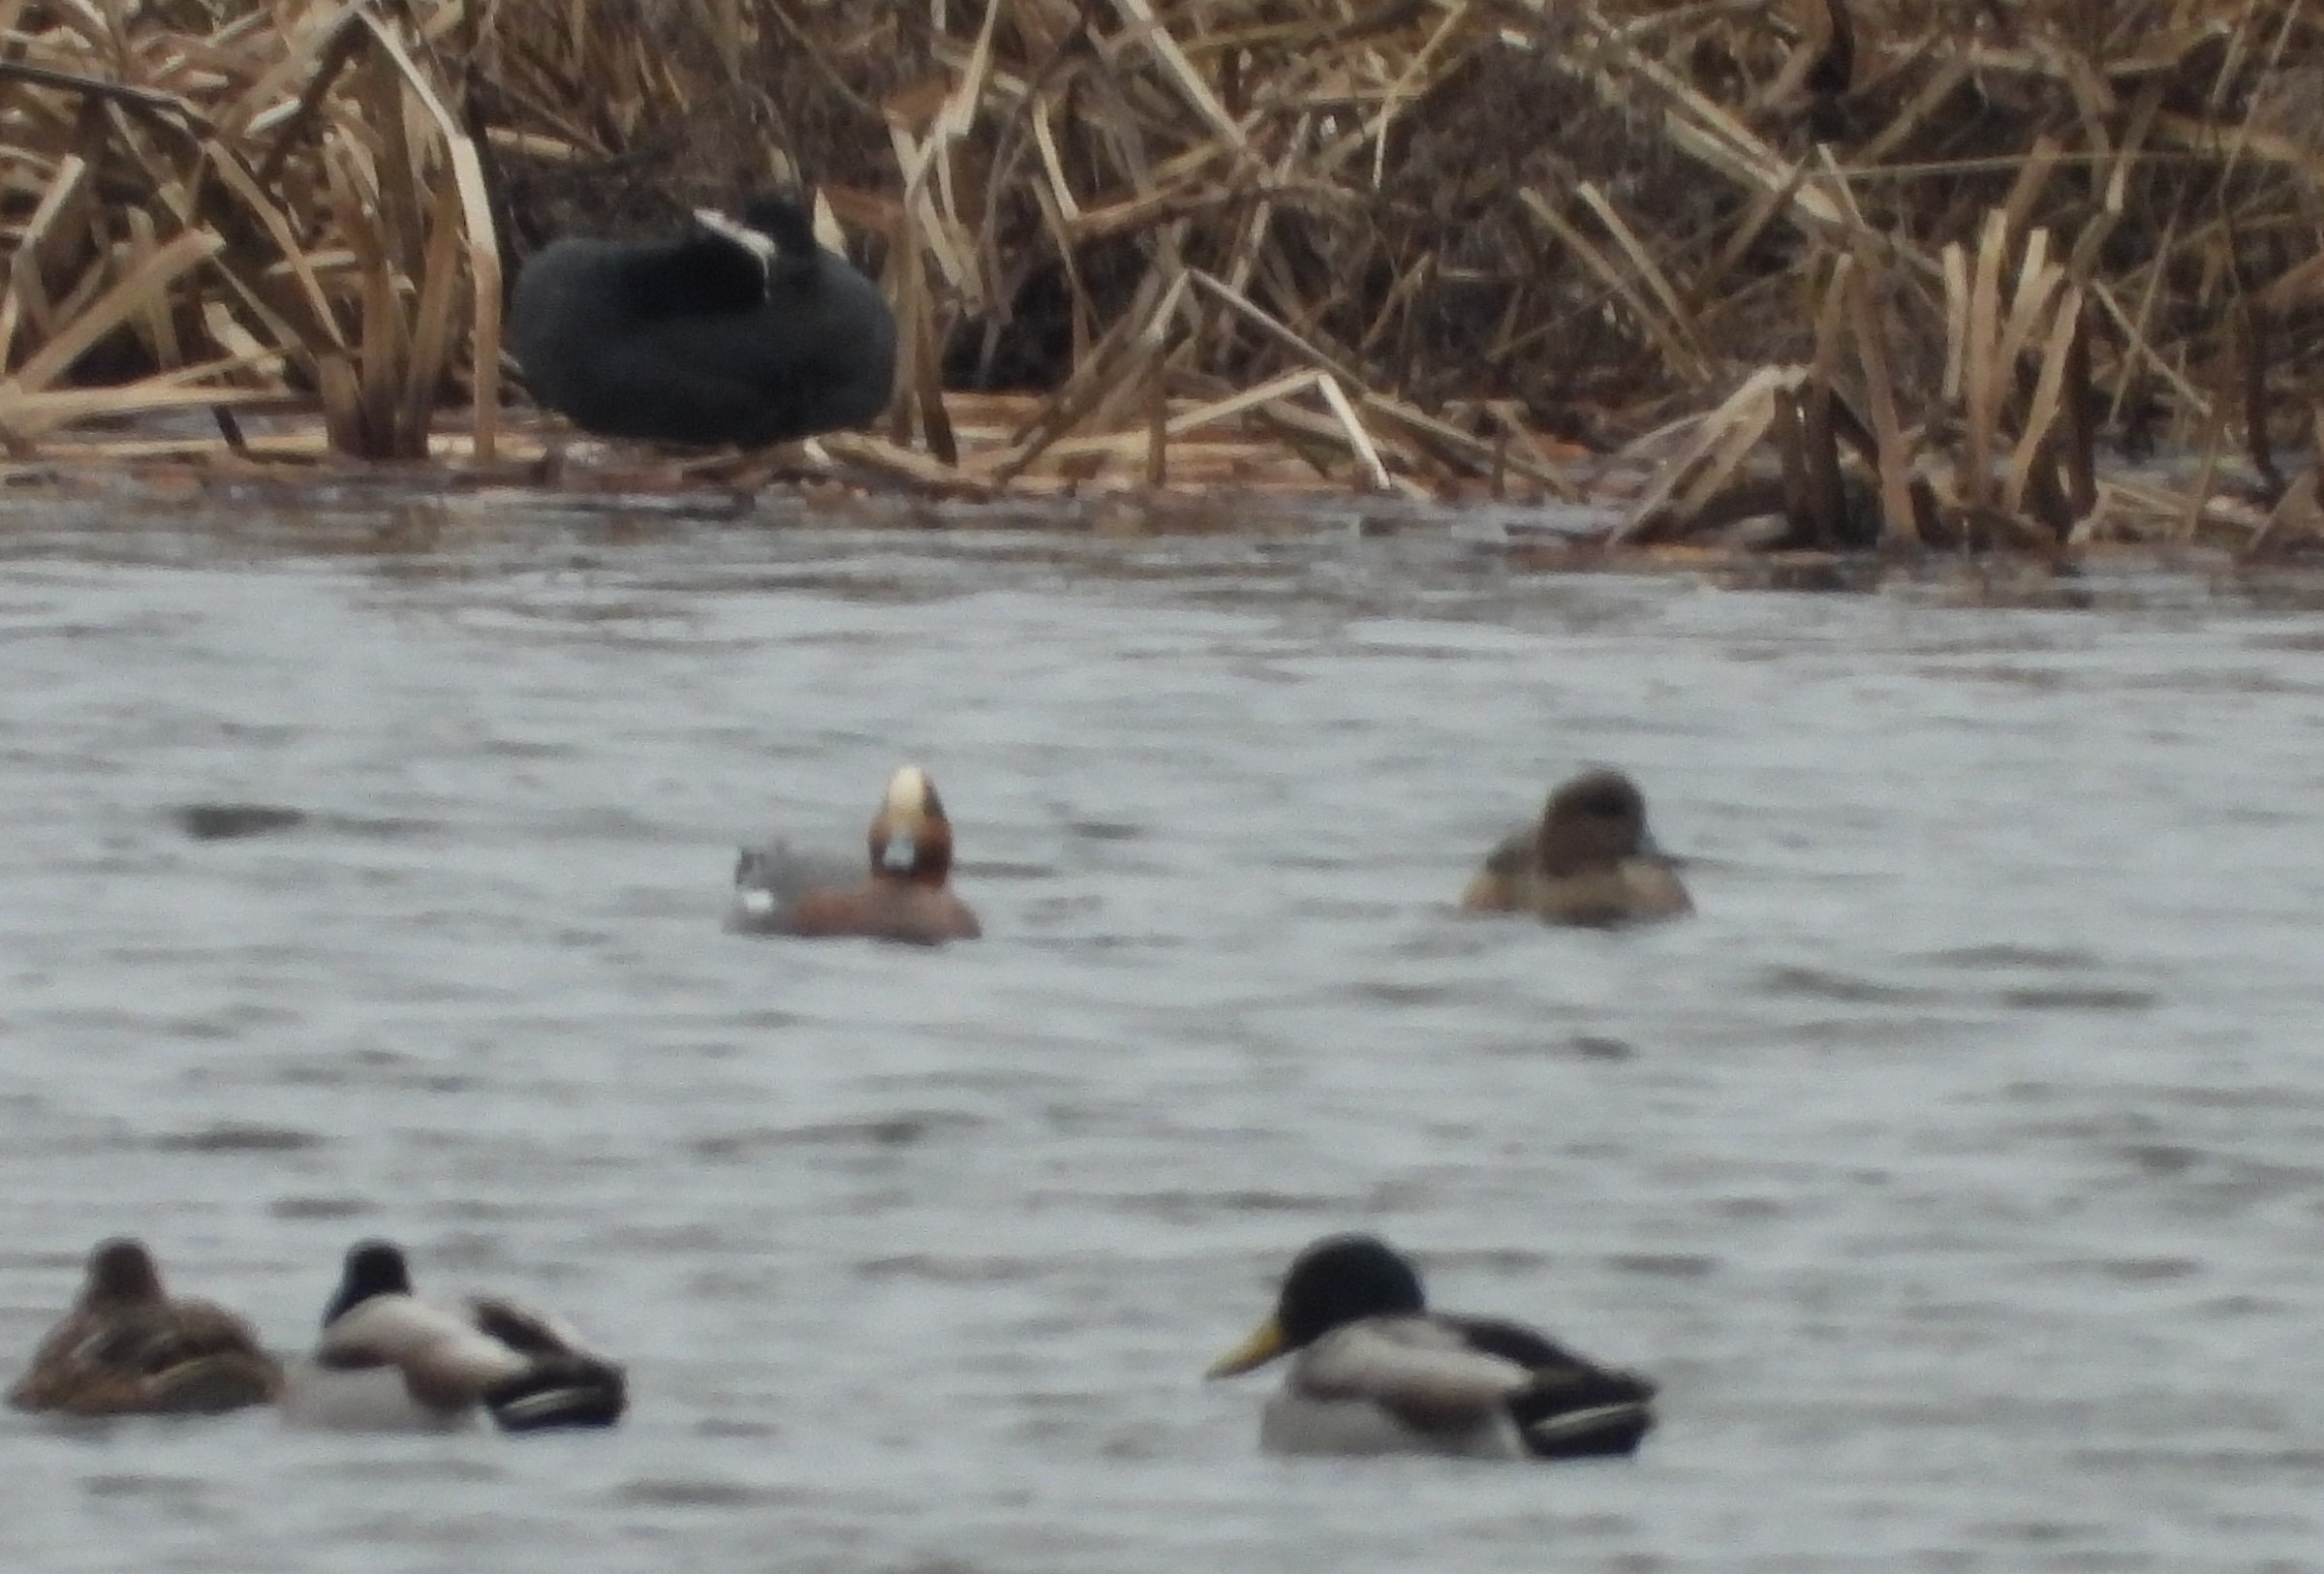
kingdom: Animalia
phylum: Chordata
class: Aves
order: Anseriformes
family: Anatidae
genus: Mareca
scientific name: Mareca penelope
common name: Pibeand
